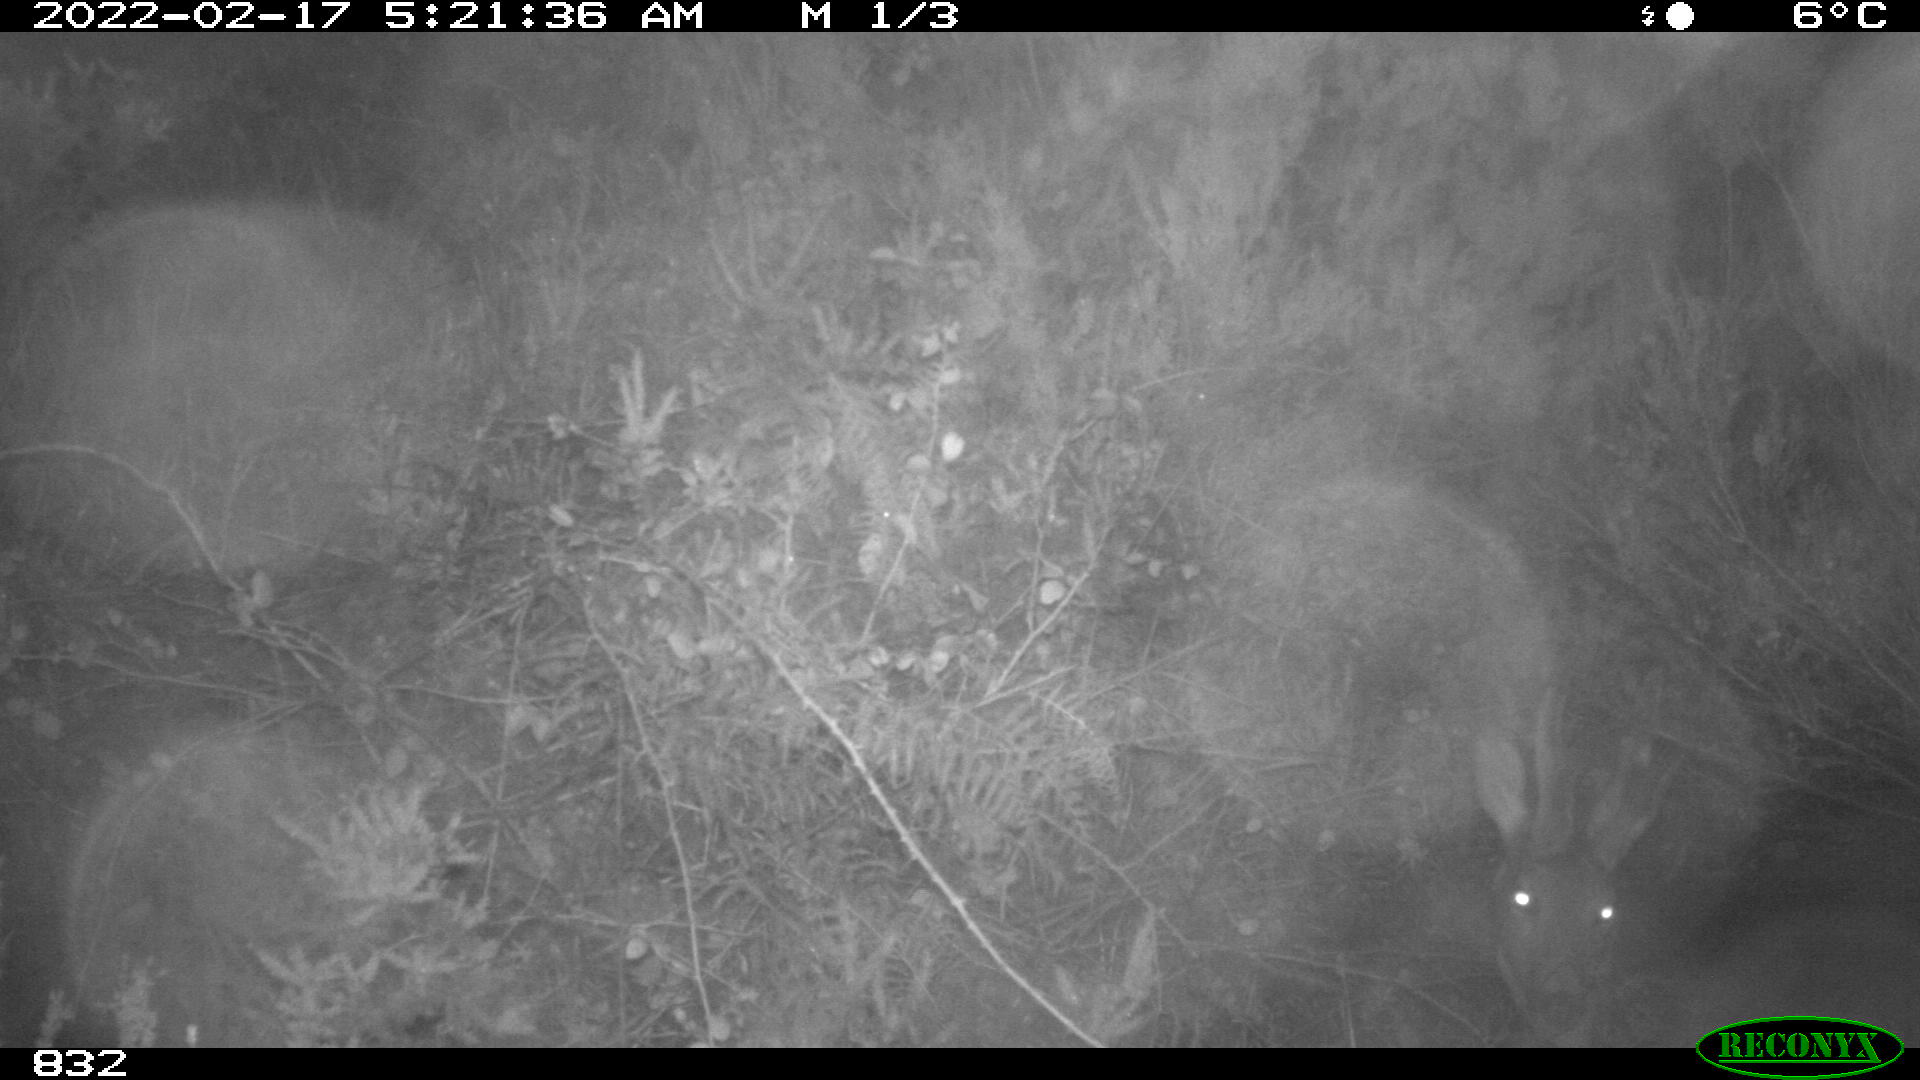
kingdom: Animalia
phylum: Chordata
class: Mammalia
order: Artiodactyla
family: Cervidae
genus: Capreolus
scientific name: Capreolus capreolus
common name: Western roe deer
